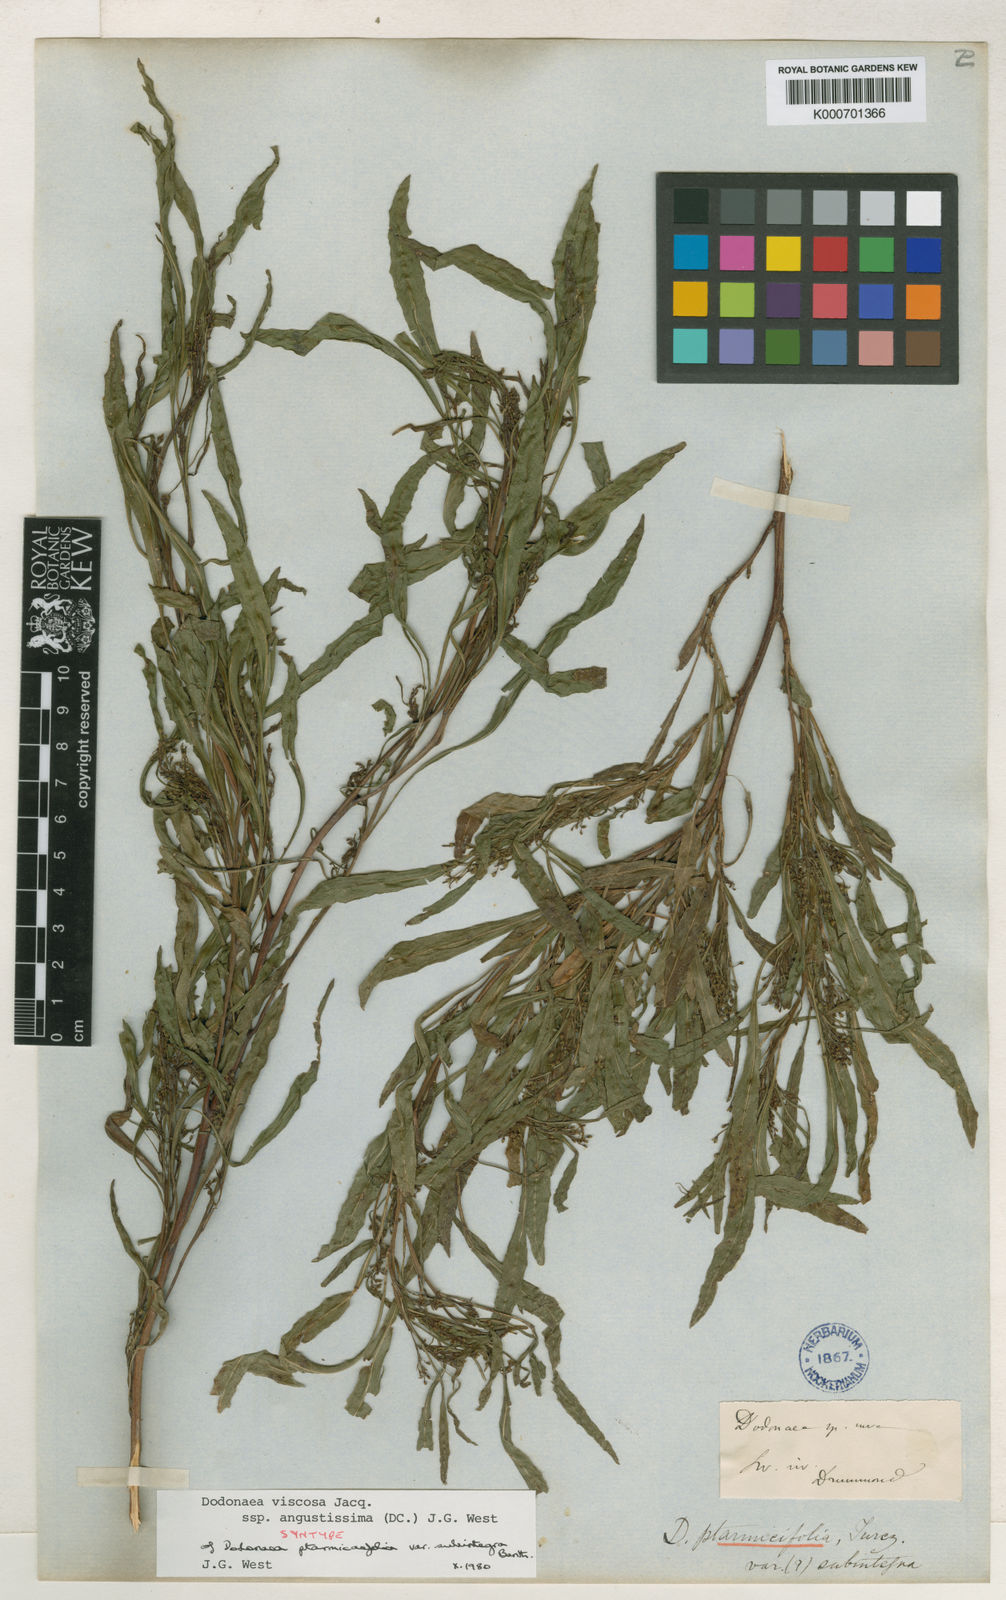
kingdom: Plantae
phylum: Tracheophyta
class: Magnoliopsida
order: Sapindales
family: Sapindaceae
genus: Dodonaea
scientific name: Dodonaea viscosa
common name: Hopbush
